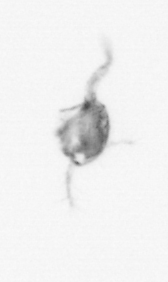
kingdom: Animalia
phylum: Arthropoda
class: Copepoda
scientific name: Copepoda
